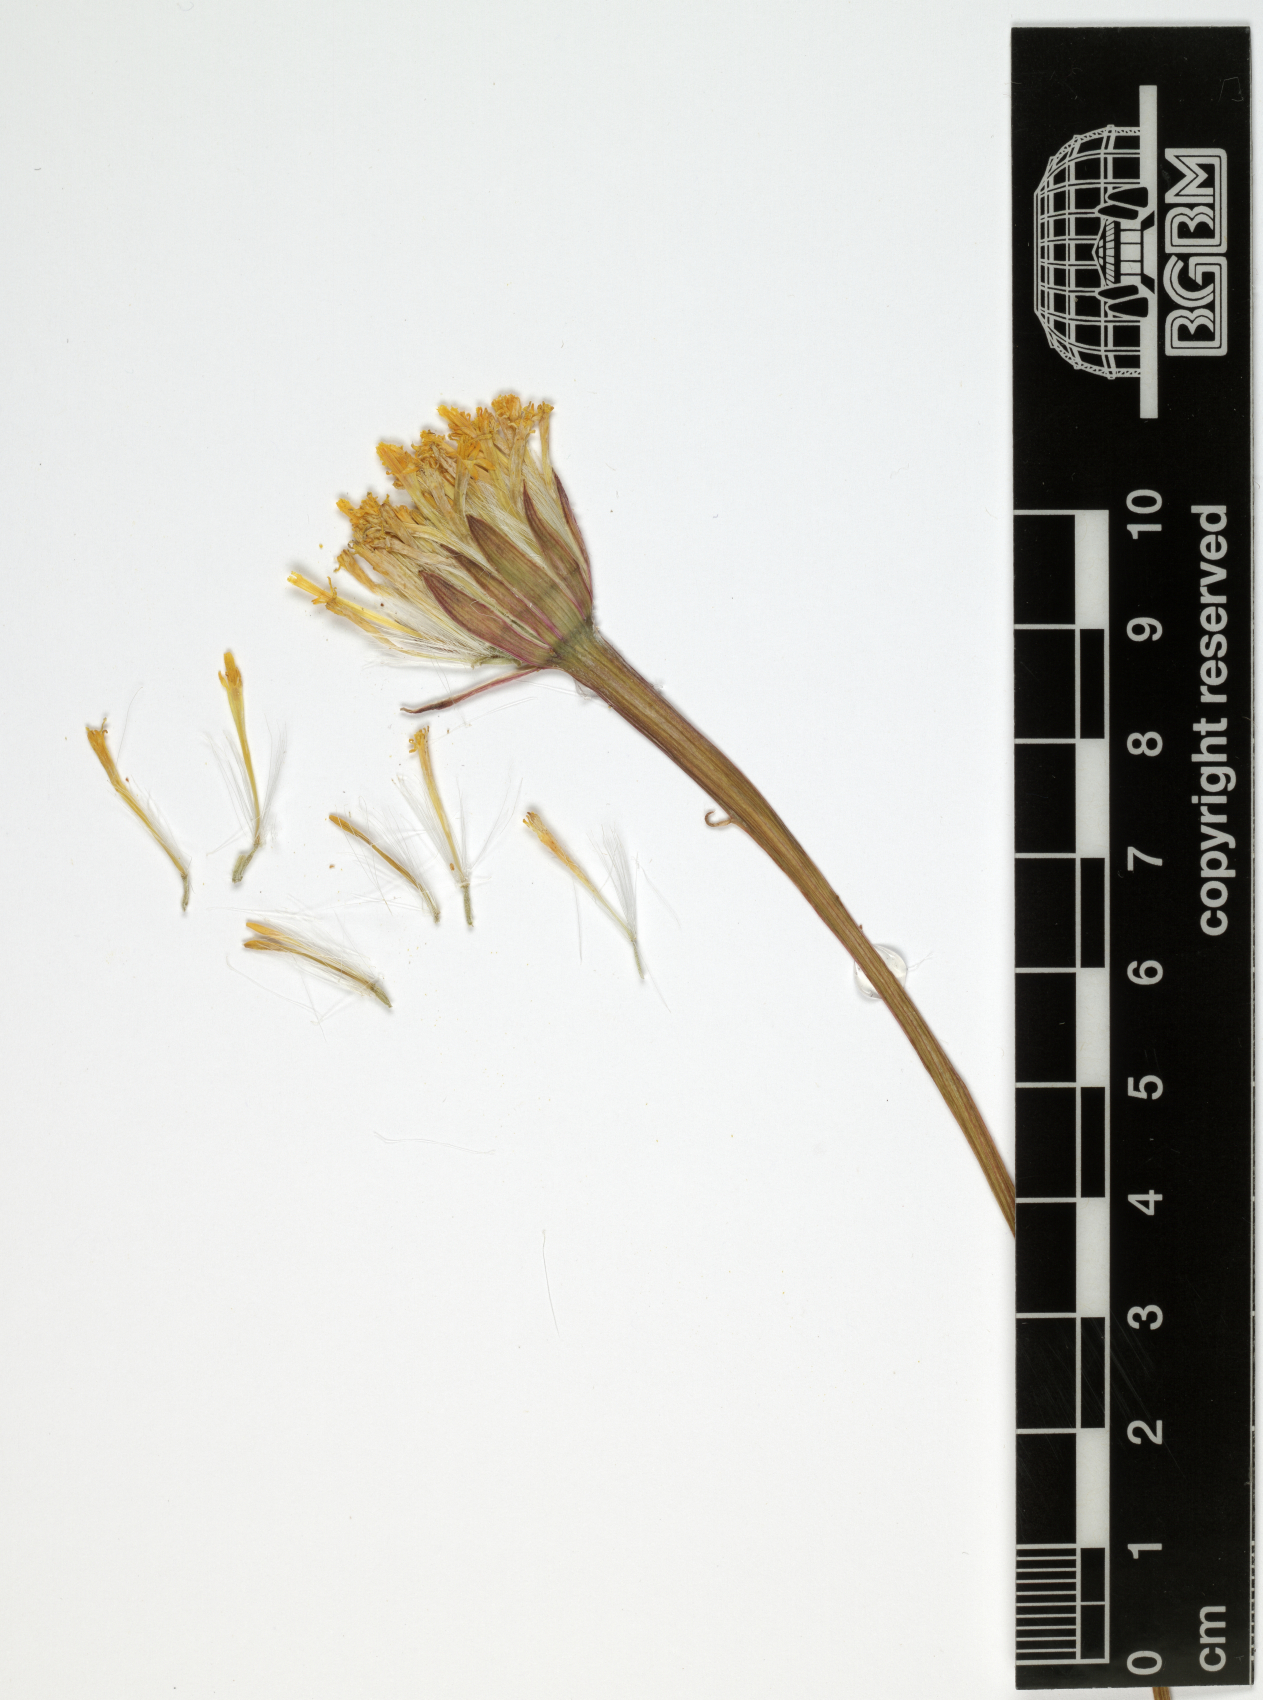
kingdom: Plantae
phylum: Tracheophyta
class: Magnoliopsida
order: Asterales
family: Asteraceae
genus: Kleinia
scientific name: Kleinia saginata
